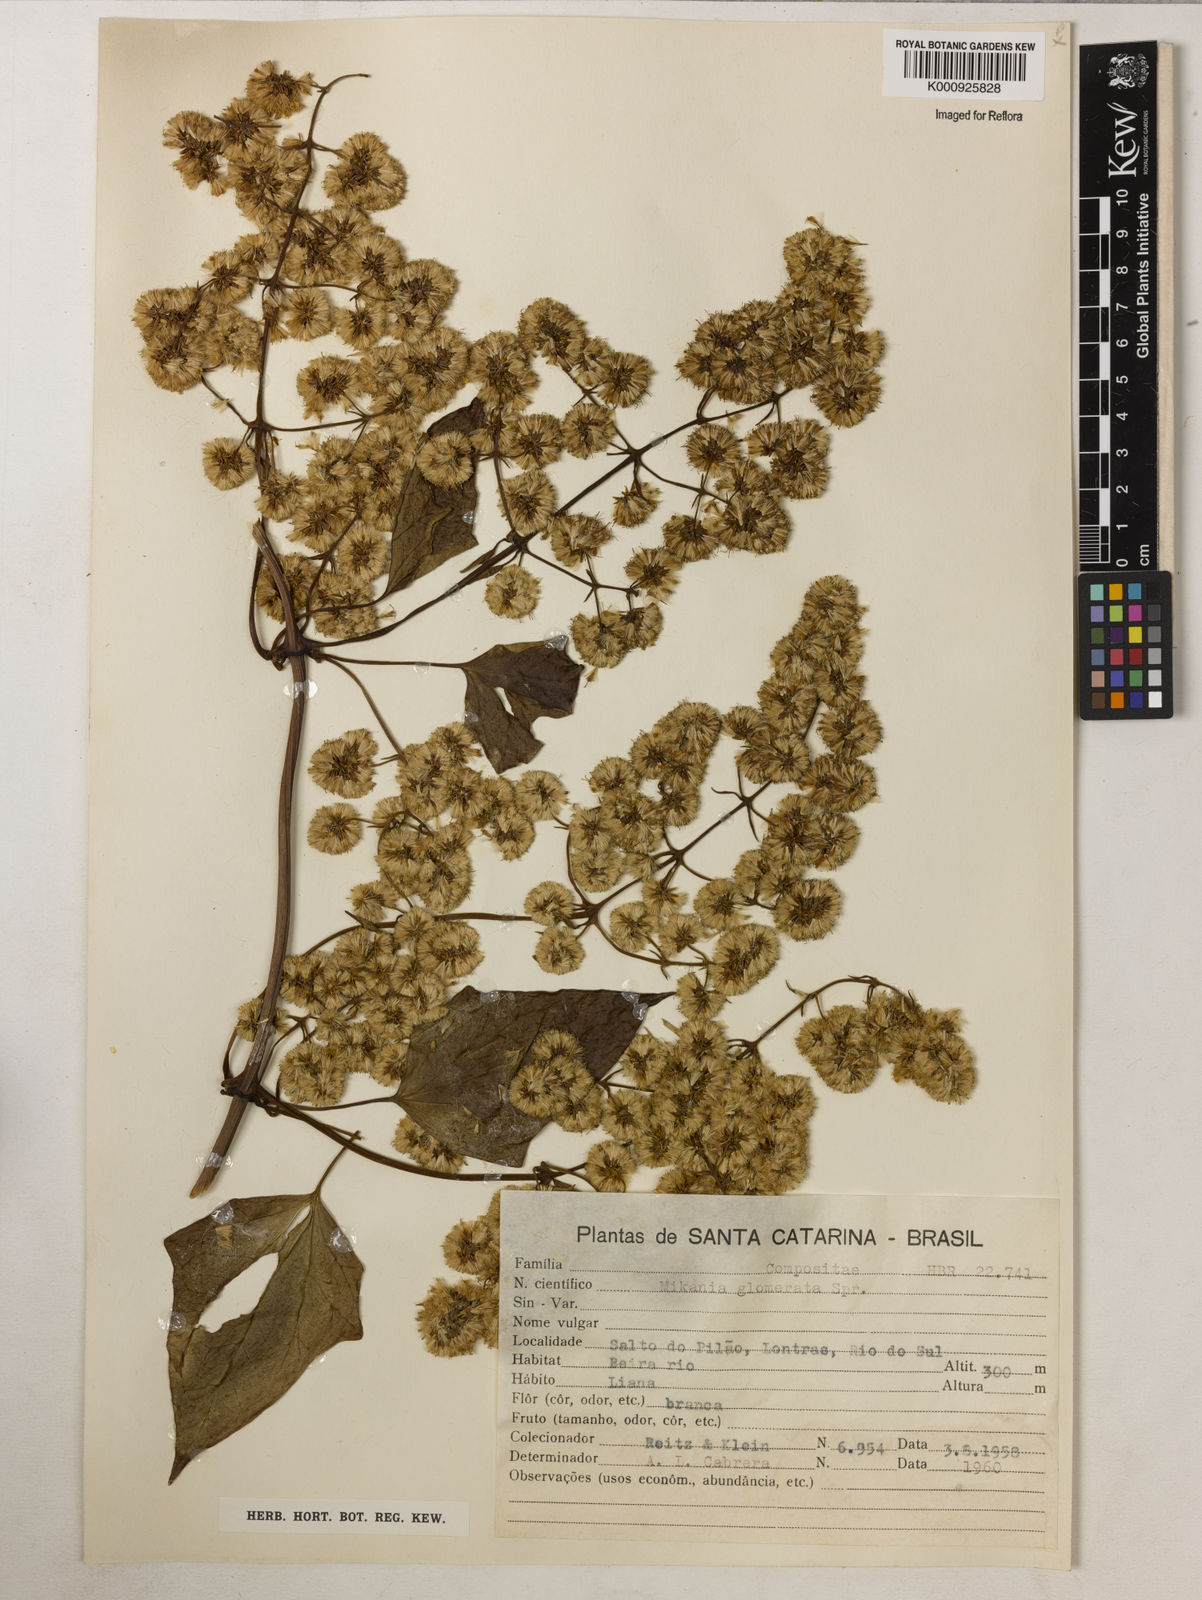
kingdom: Plantae
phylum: Tracheophyta
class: Magnoliopsida
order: Asterales
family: Asteraceae
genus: Mikania
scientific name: Mikania glomerata
